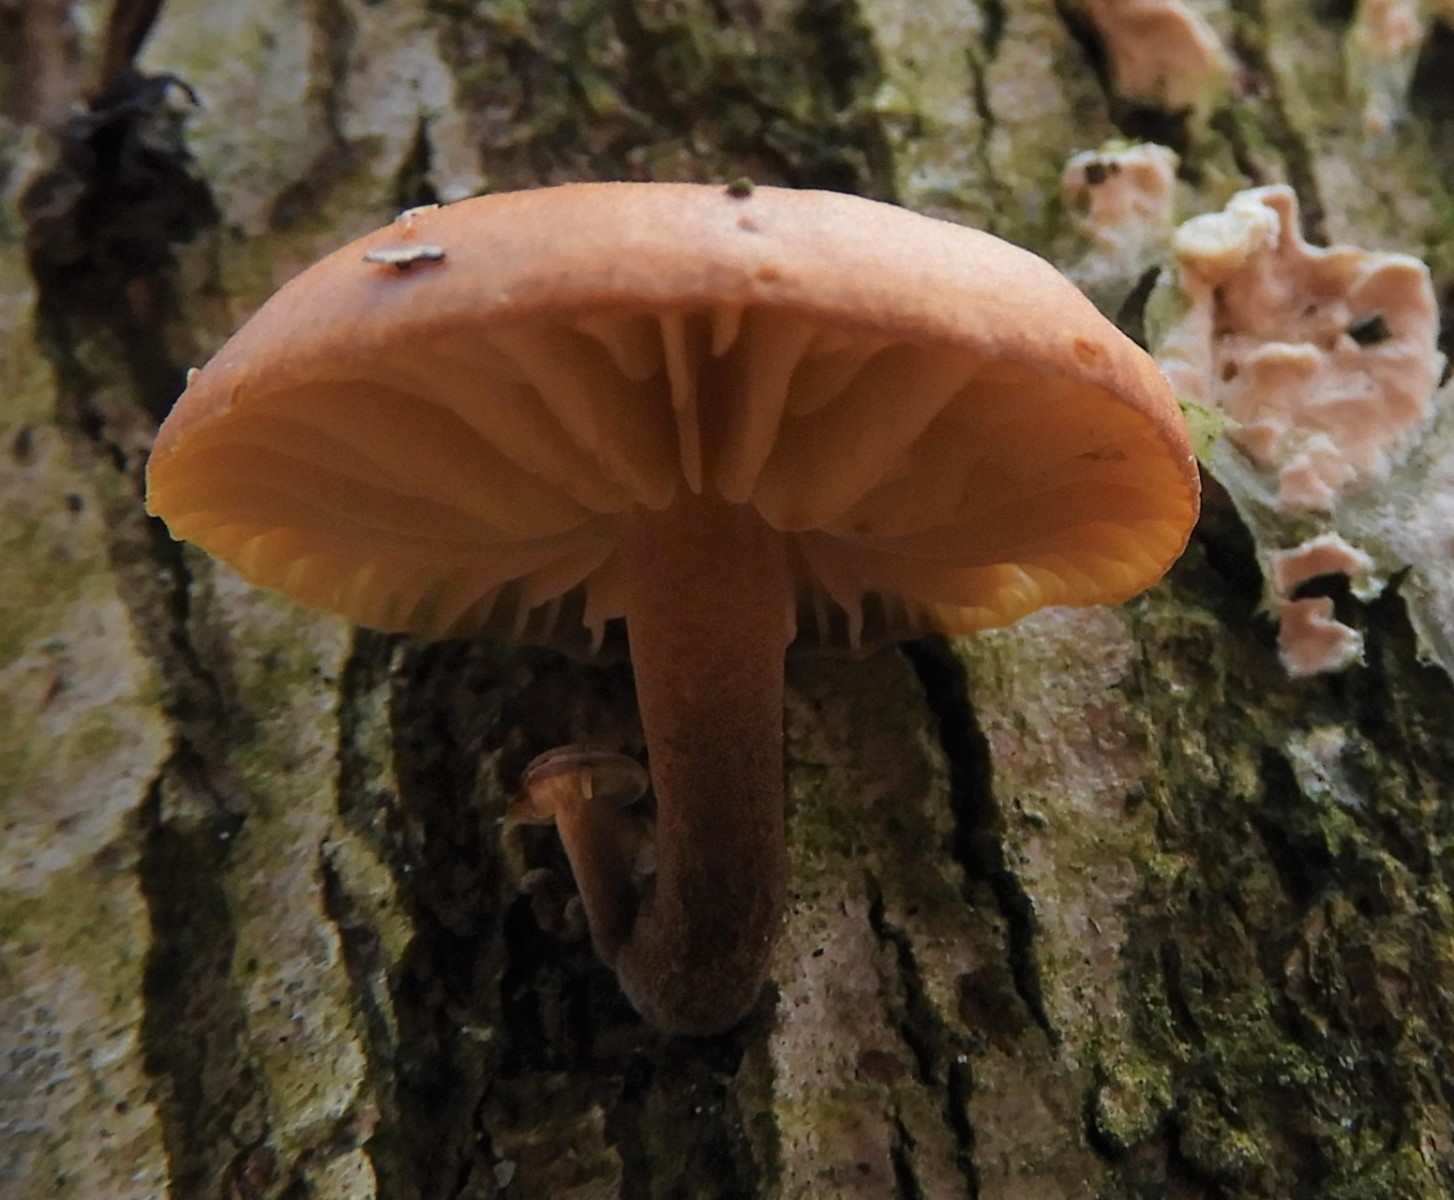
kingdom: Fungi
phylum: Basidiomycota
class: Agaricomycetes
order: Agaricales
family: Physalacriaceae
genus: Flammulina
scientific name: Flammulina
